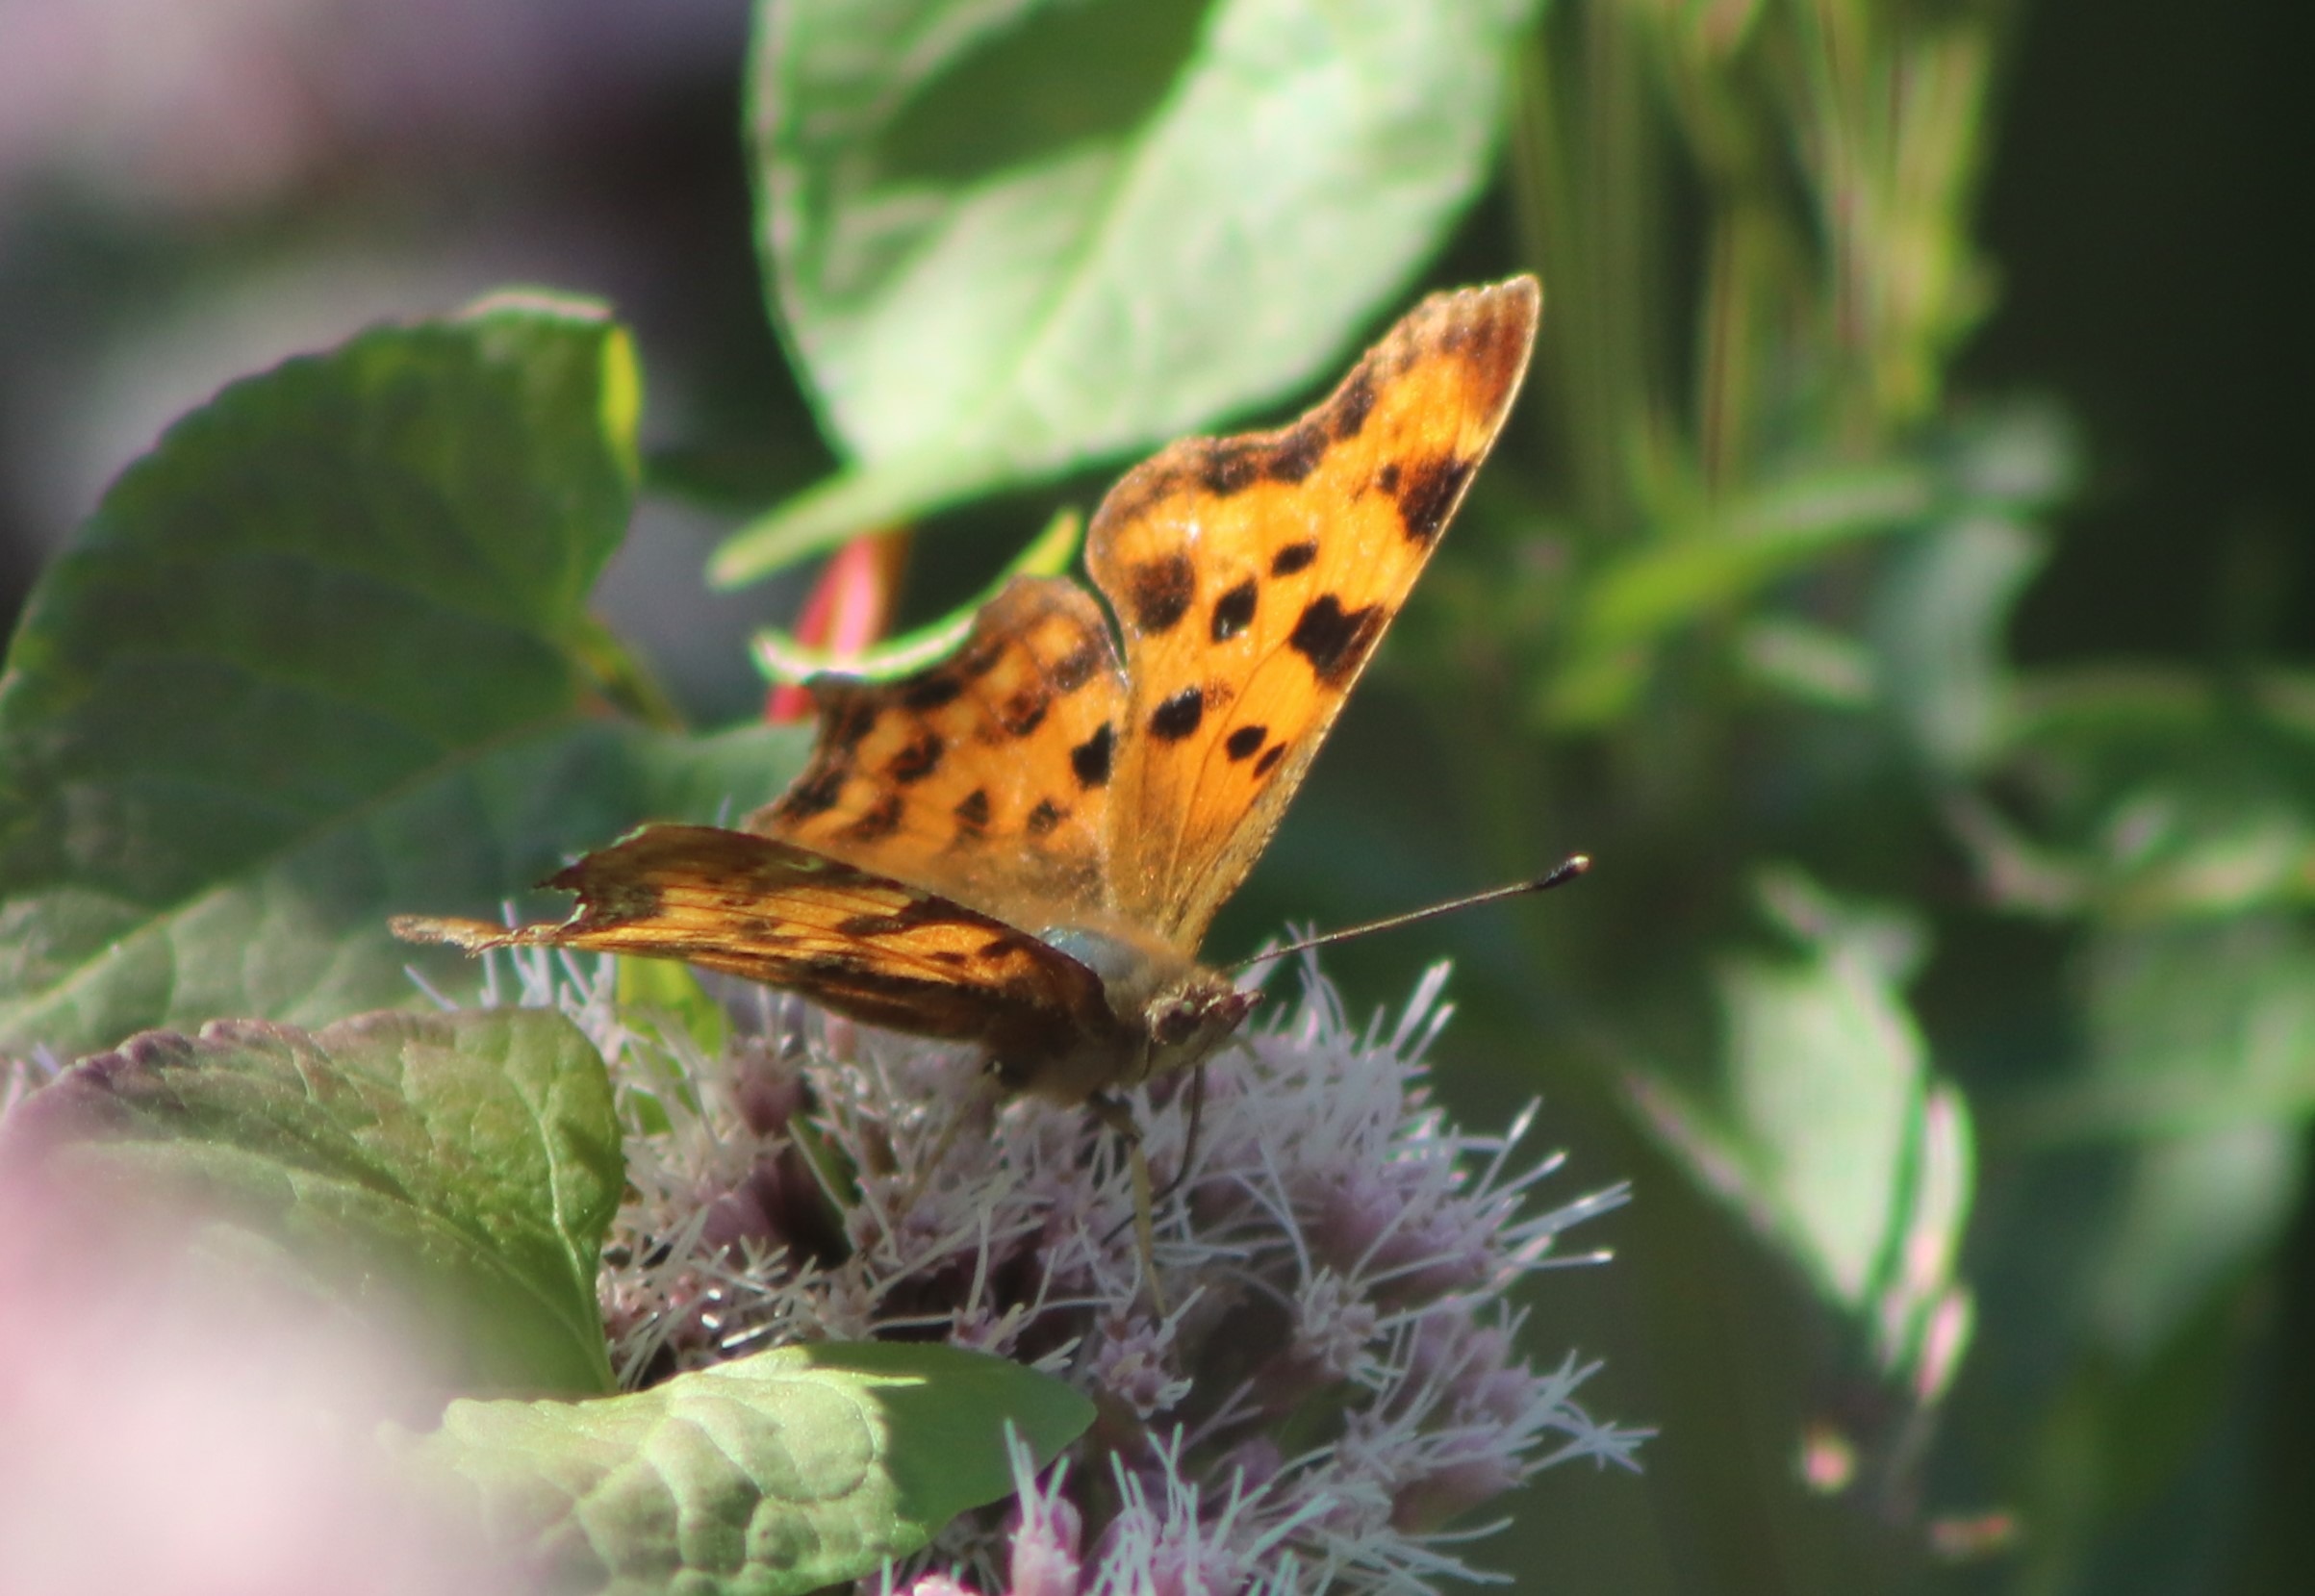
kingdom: Animalia
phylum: Arthropoda
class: Insecta
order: Lepidoptera
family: Nymphalidae
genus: Polygonia
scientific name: Polygonia c-album
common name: Det hvide C
